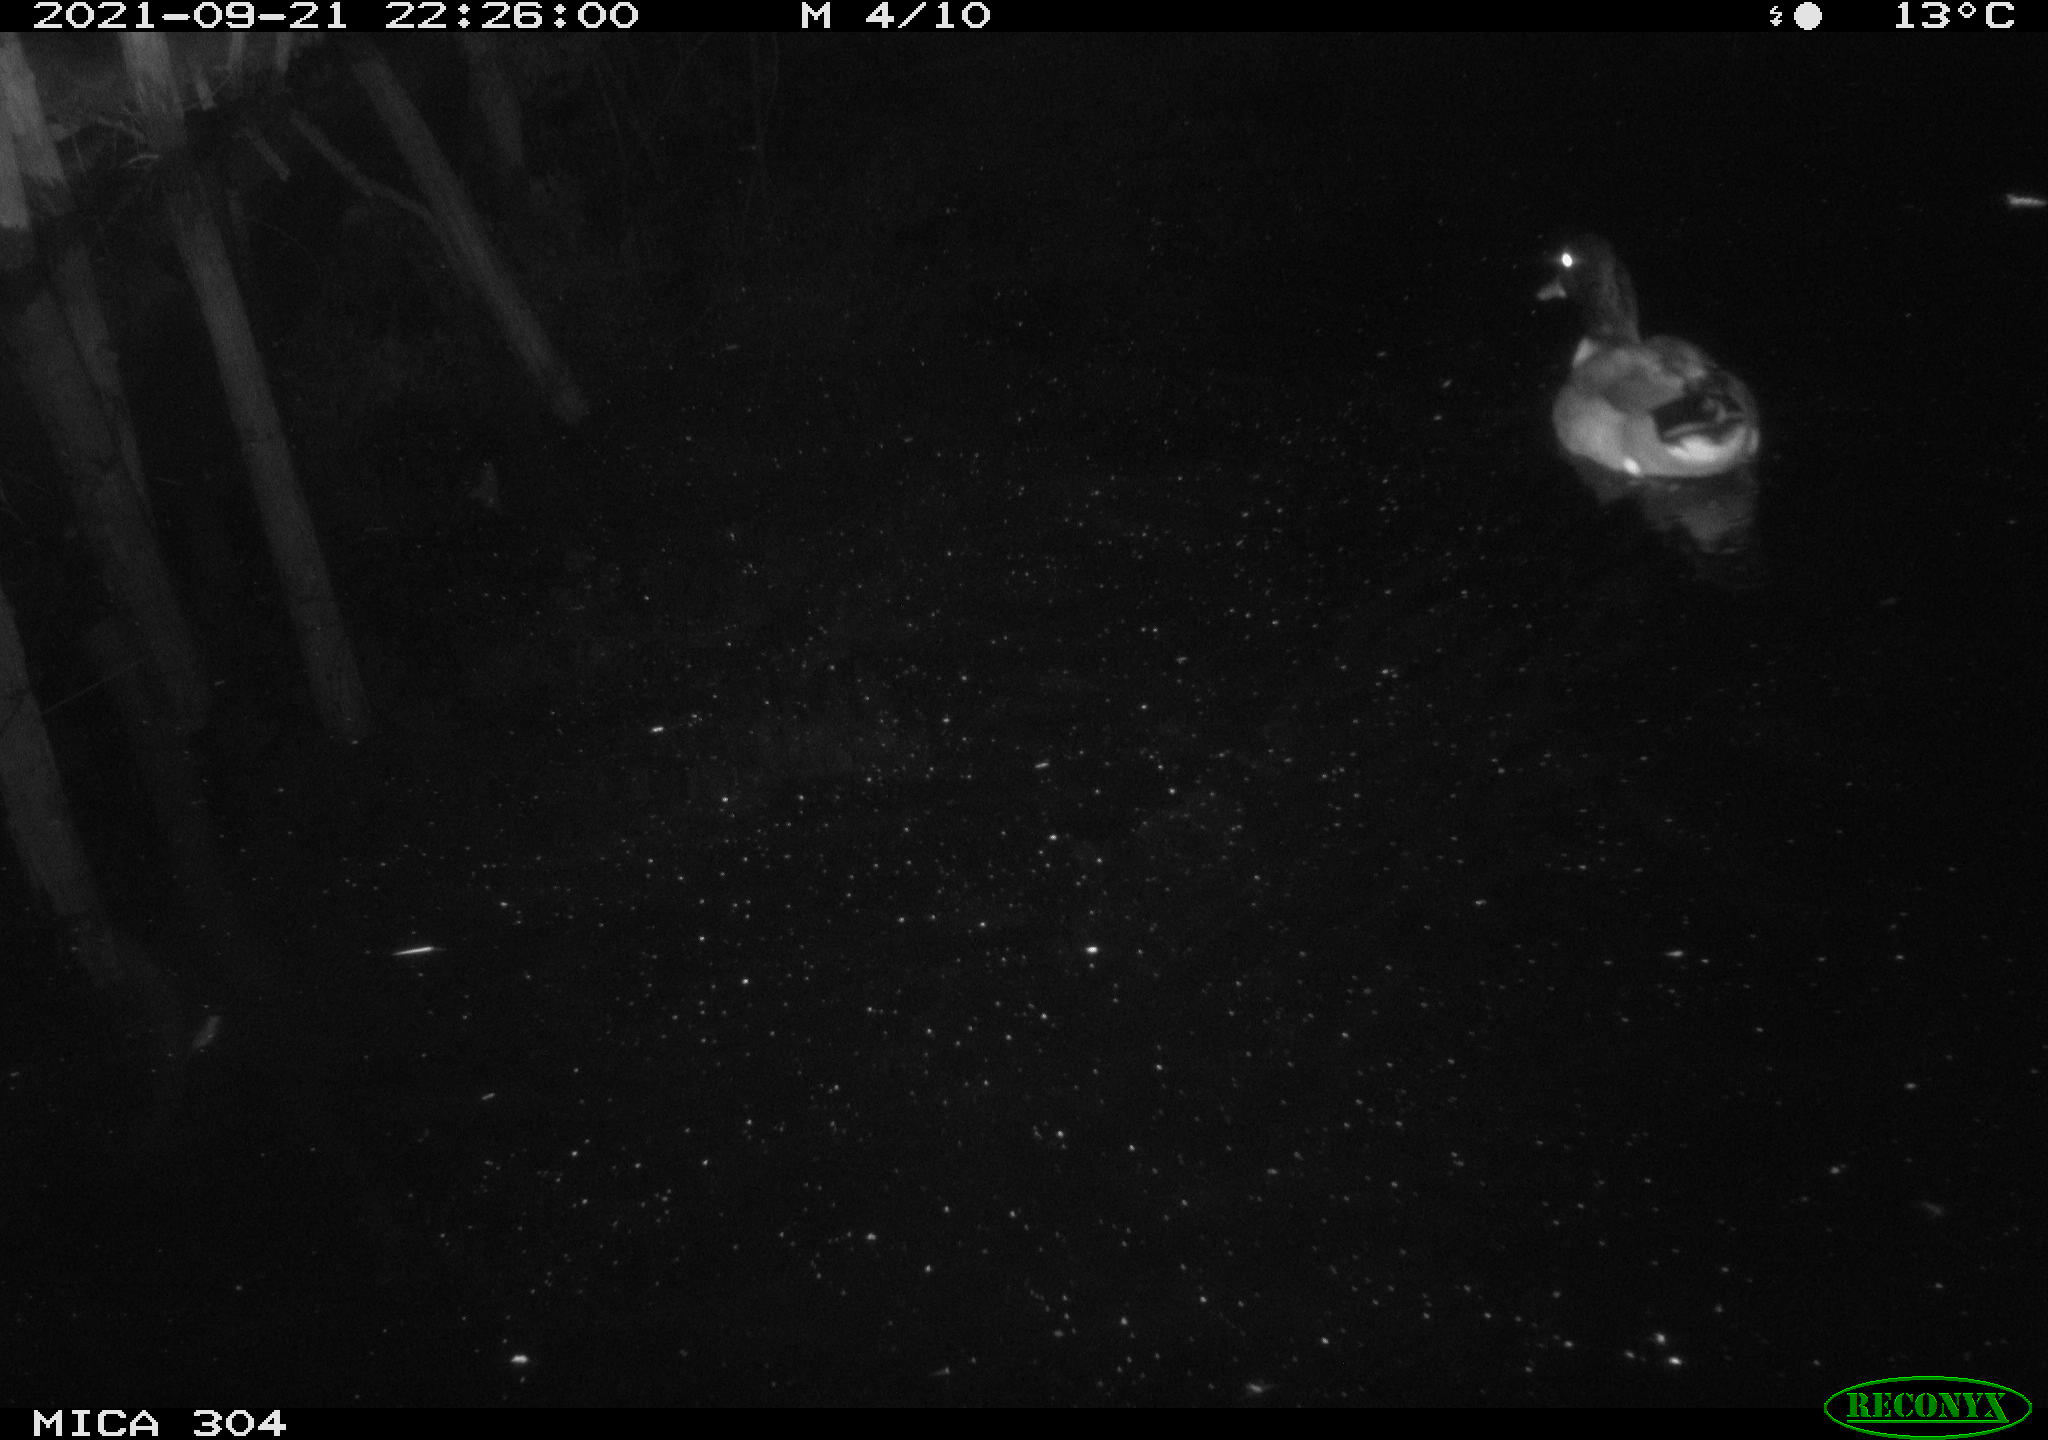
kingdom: Animalia
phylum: Chordata
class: Aves
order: Anseriformes
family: Anatidae
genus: Anas
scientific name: Anas platyrhynchos
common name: Mallard
